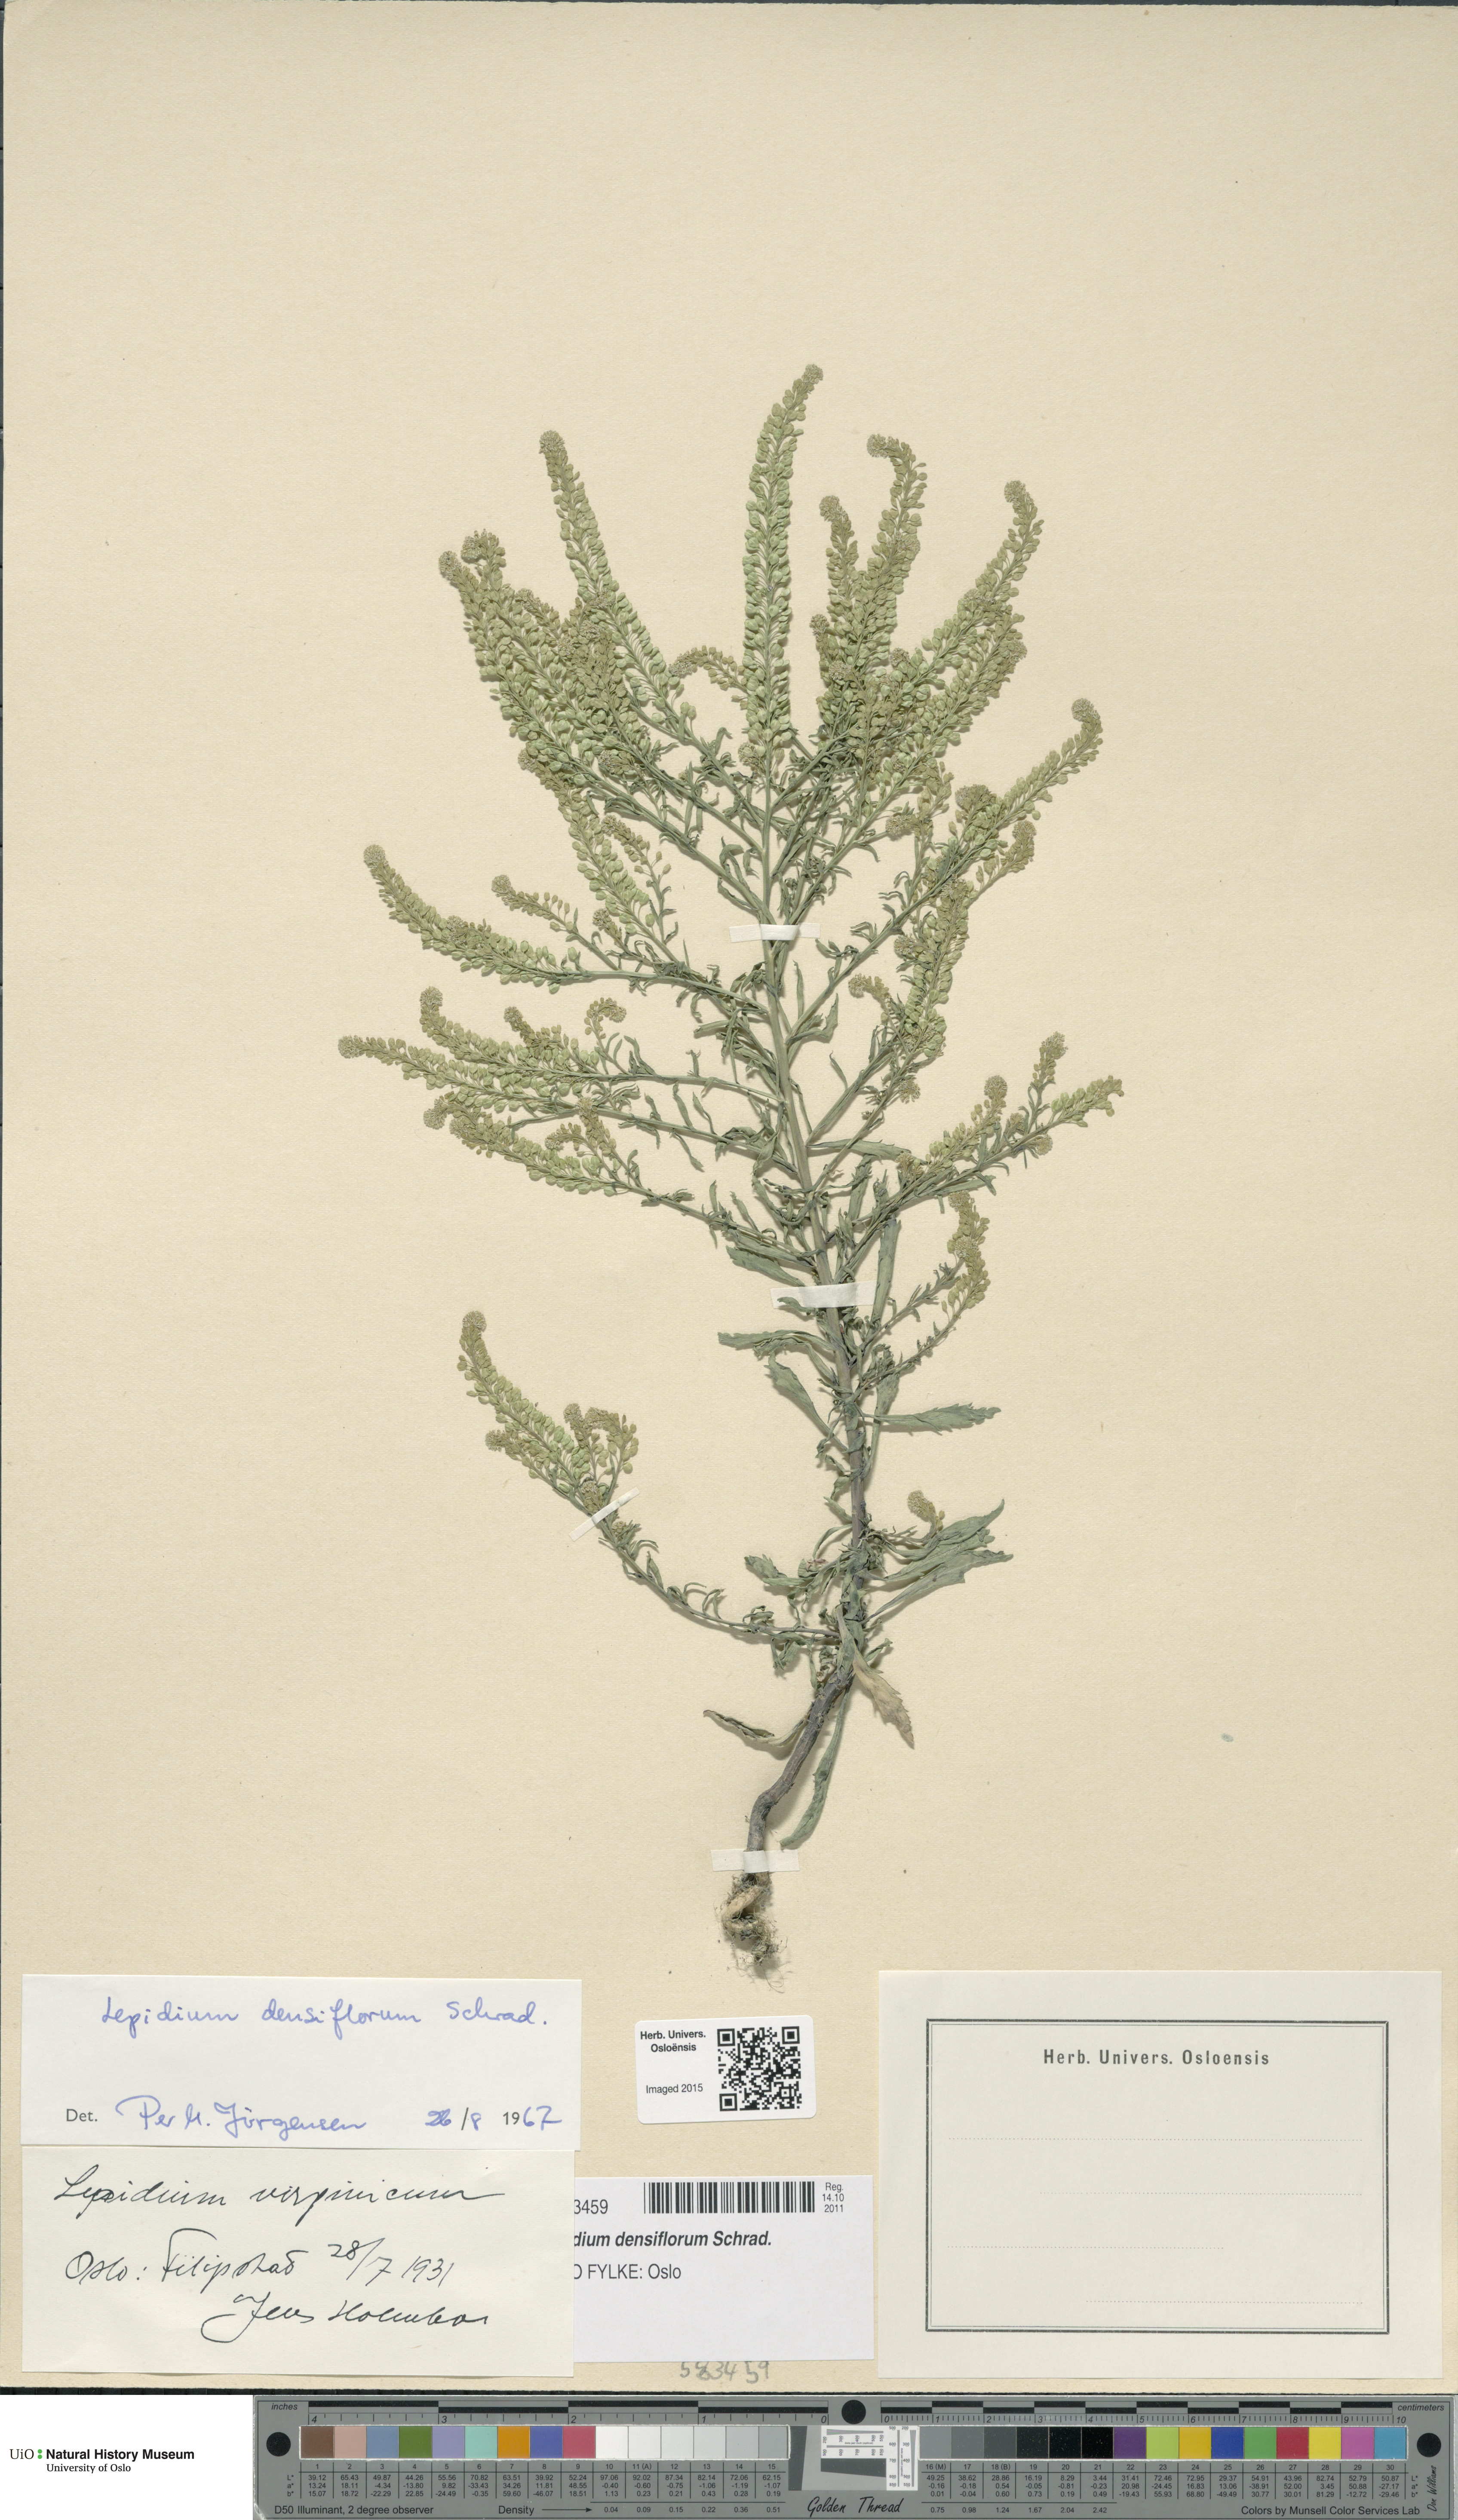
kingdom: Plantae
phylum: Tracheophyta
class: Magnoliopsida
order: Brassicales
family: Brassicaceae
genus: Lepidium
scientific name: Lepidium densiflorum
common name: Miner's pepperwort
